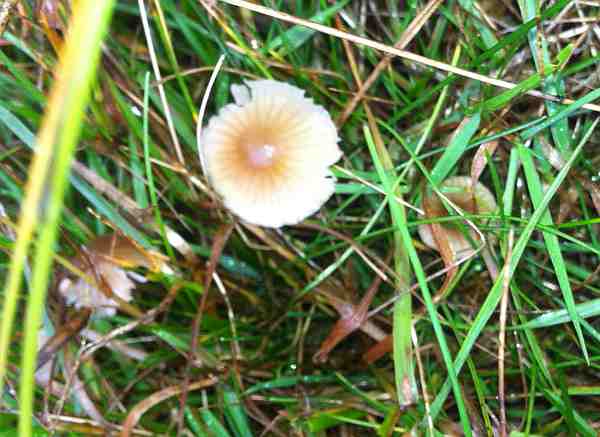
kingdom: Fungi
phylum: Basidiomycota
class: Agaricomycetes
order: Agaricales
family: Mycenaceae
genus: Mycena
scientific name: Mycena olivaceomarginata
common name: brunægget huesvamp
